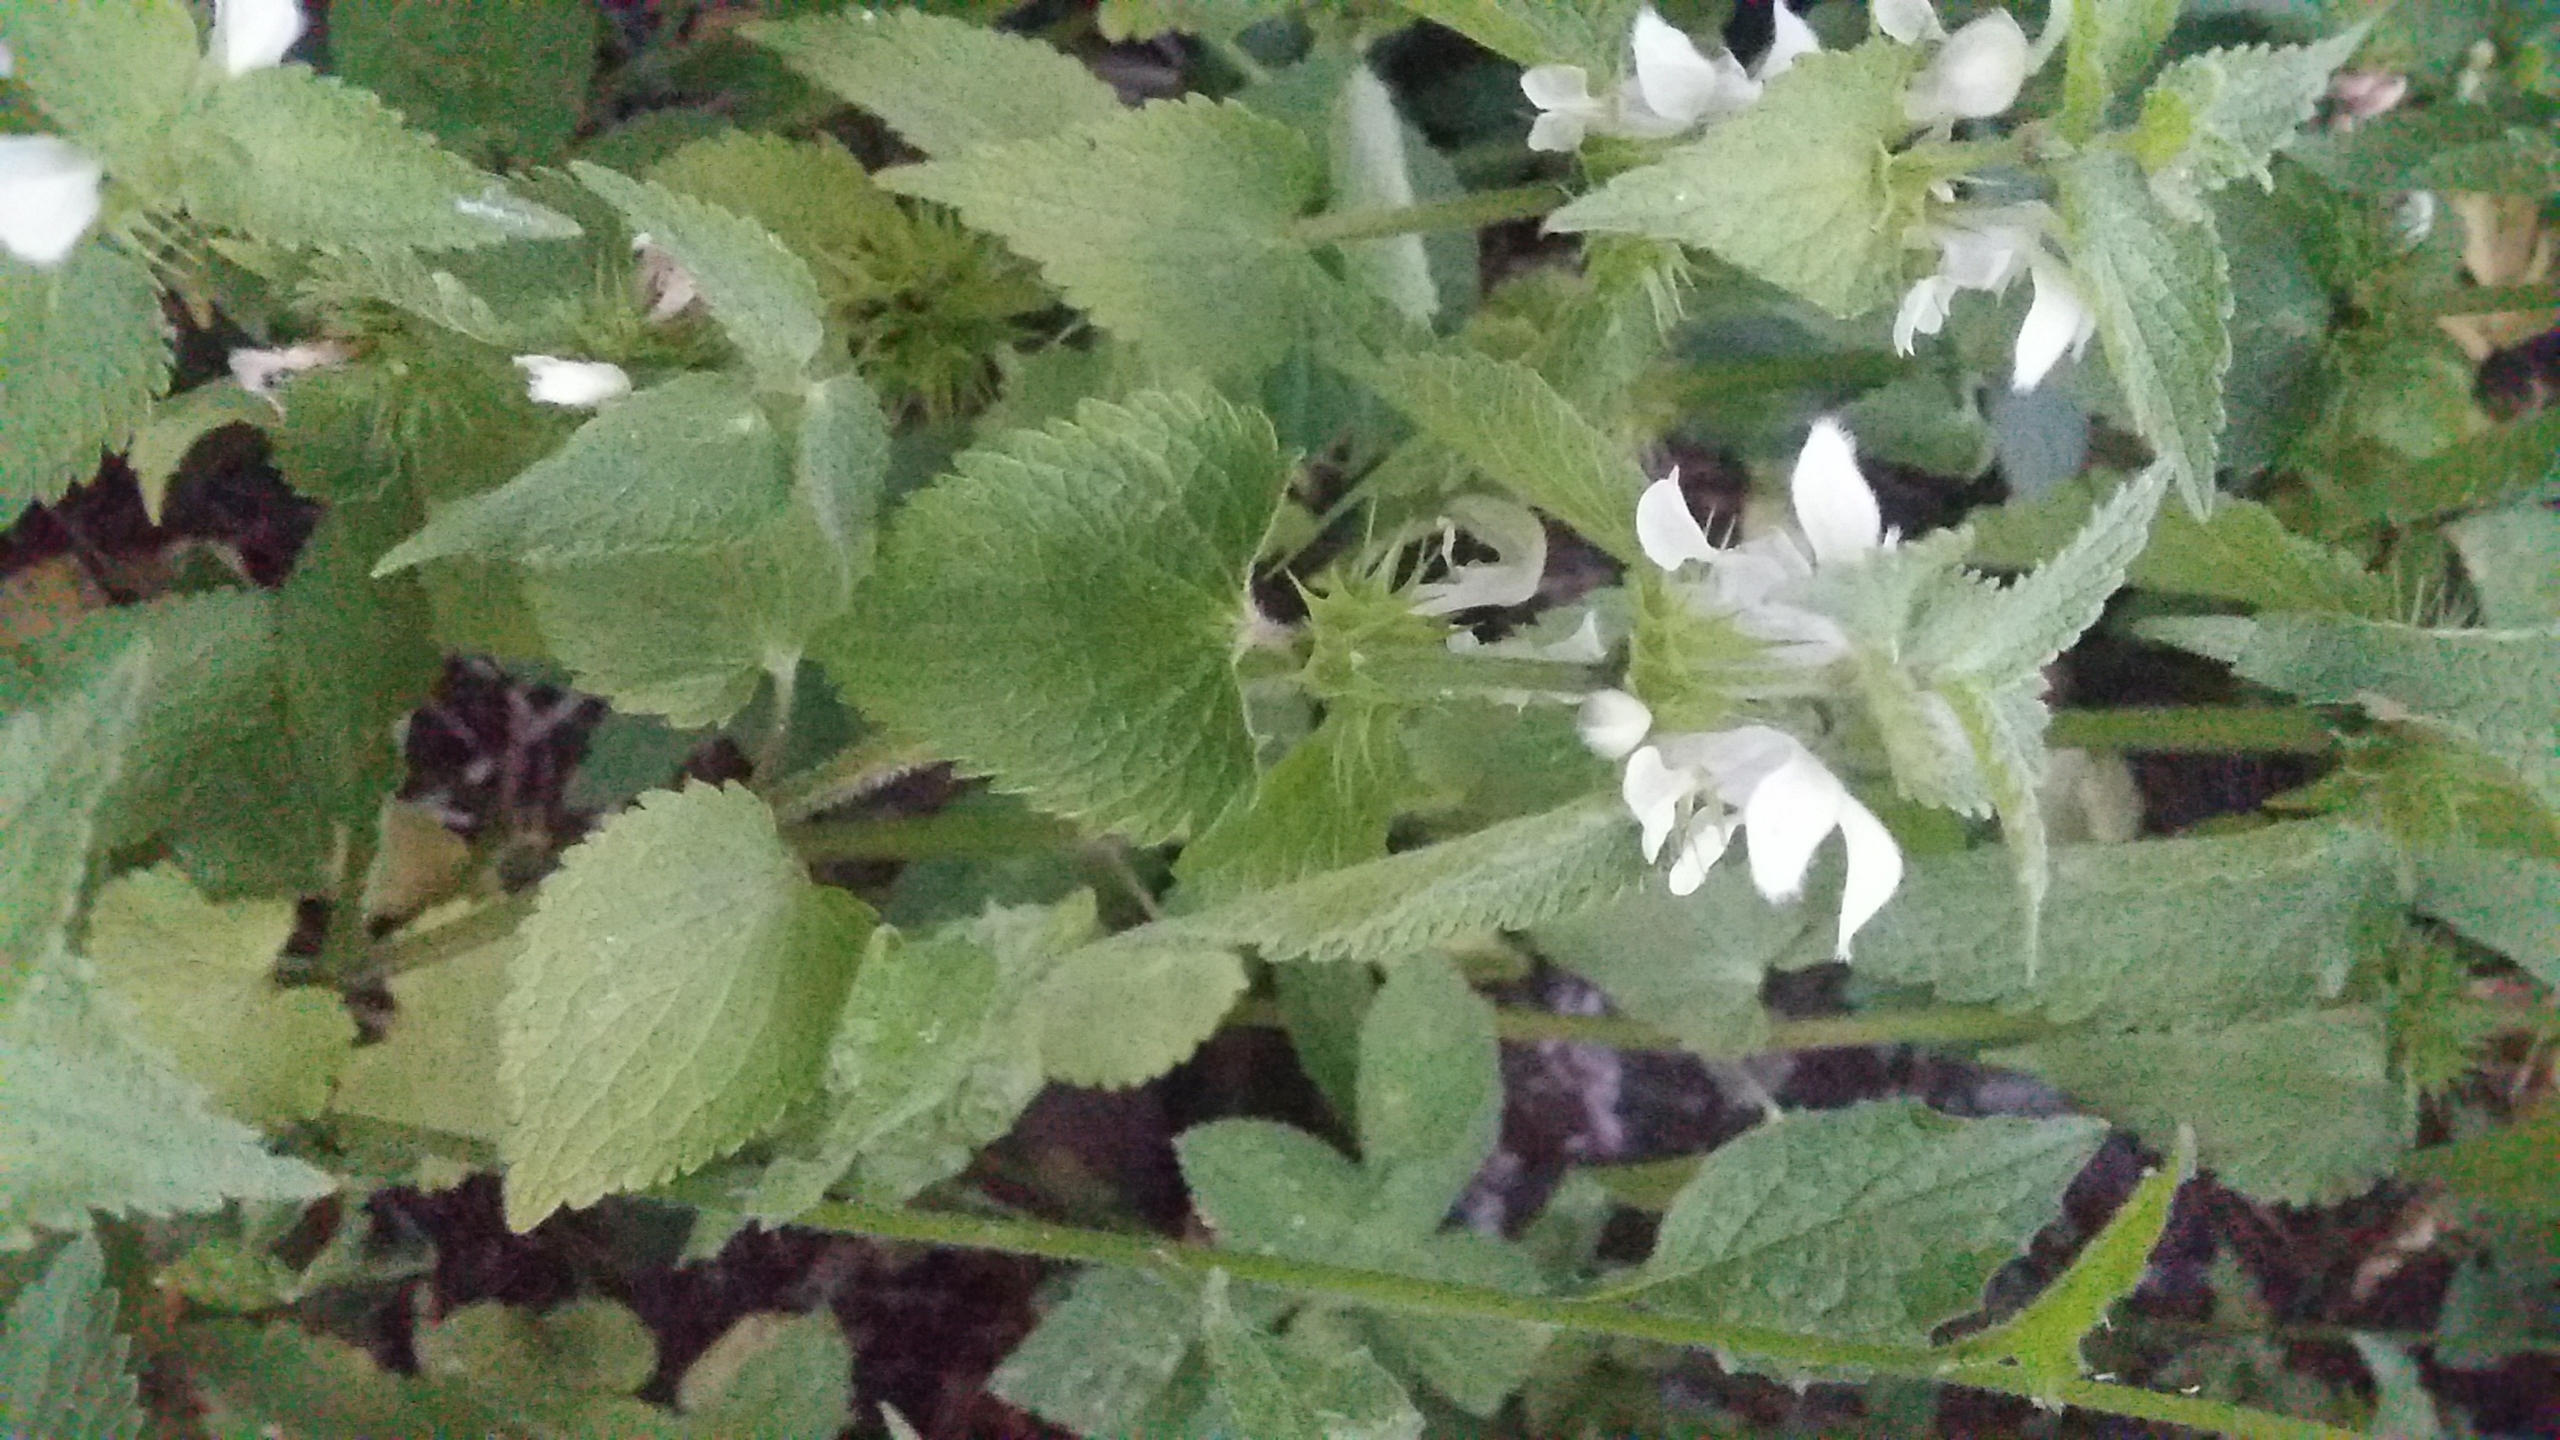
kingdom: Plantae
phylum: Tracheophyta
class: Magnoliopsida
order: Lamiales
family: Lamiaceae
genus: Lamium
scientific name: Lamium album
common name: Døvnælde
